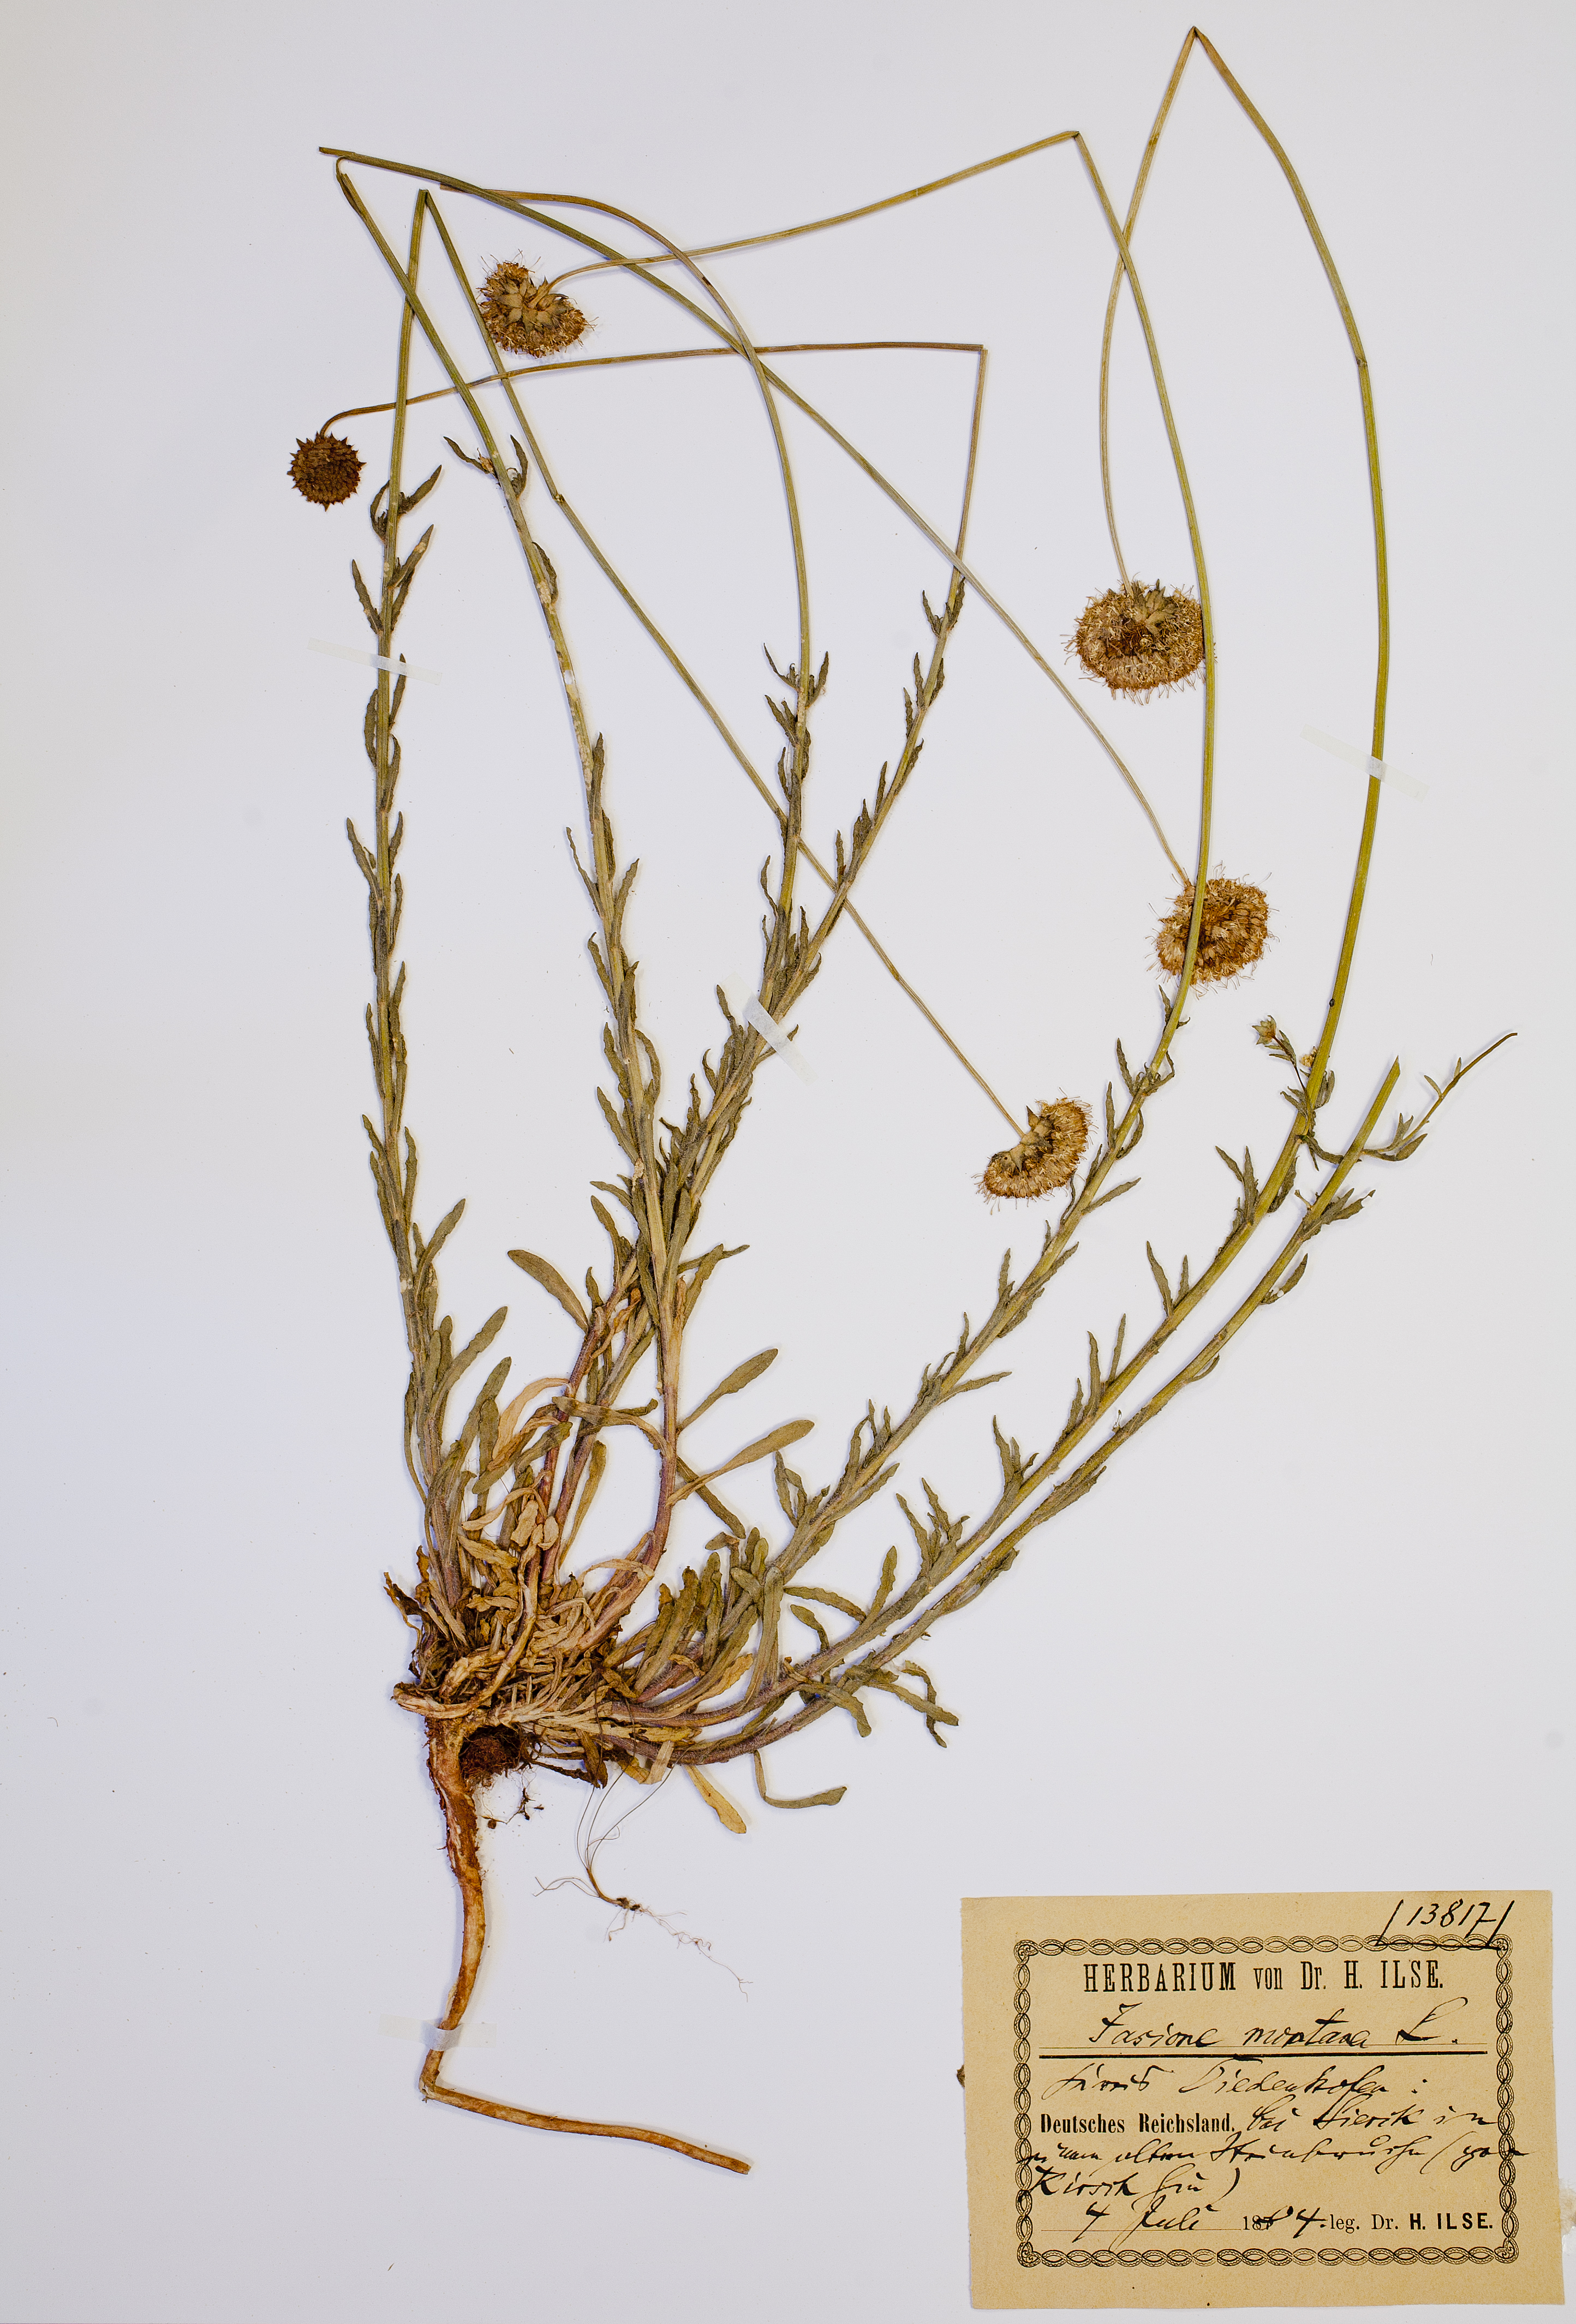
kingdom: Plantae
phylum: Tracheophyta
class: Magnoliopsida
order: Asterales
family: Campanulaceae
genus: Jasione
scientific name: Jasione montana
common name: Sheep's-bit
